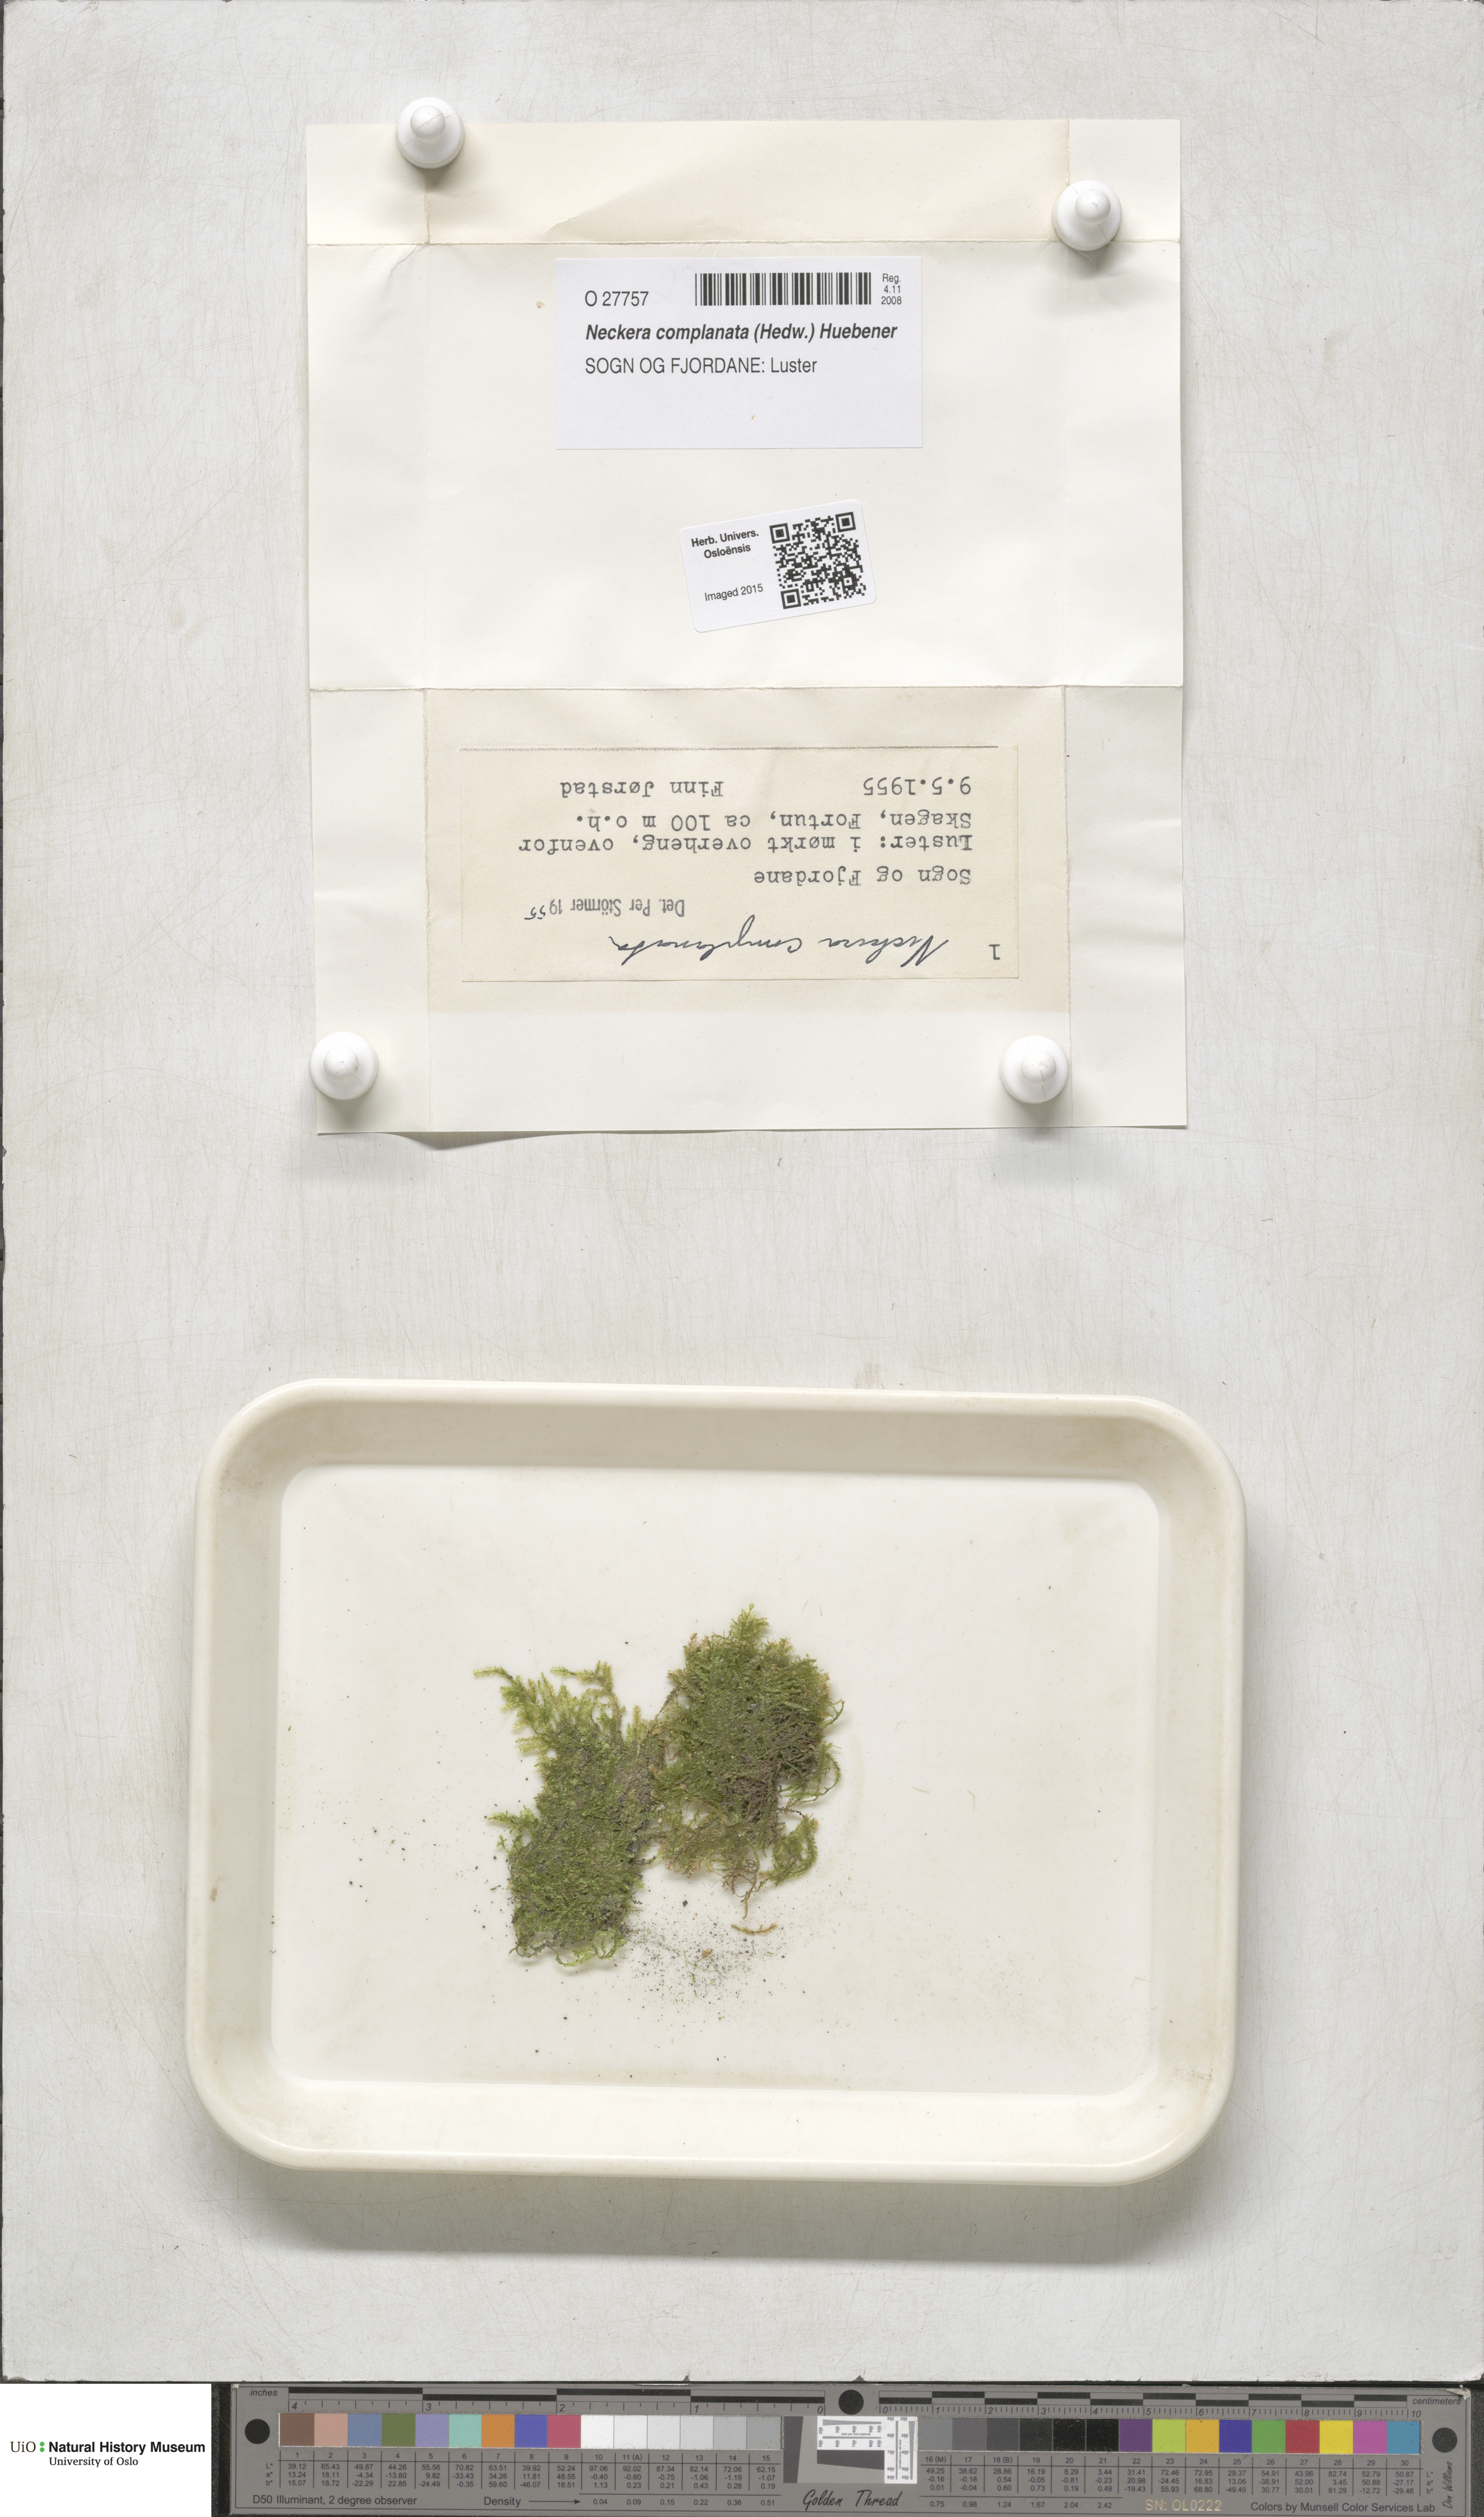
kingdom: Plantae
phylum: Bryophyta
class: Bryopsida
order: Hypnales
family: Neckeraceae
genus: Alleniella
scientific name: Alleniella complanata
